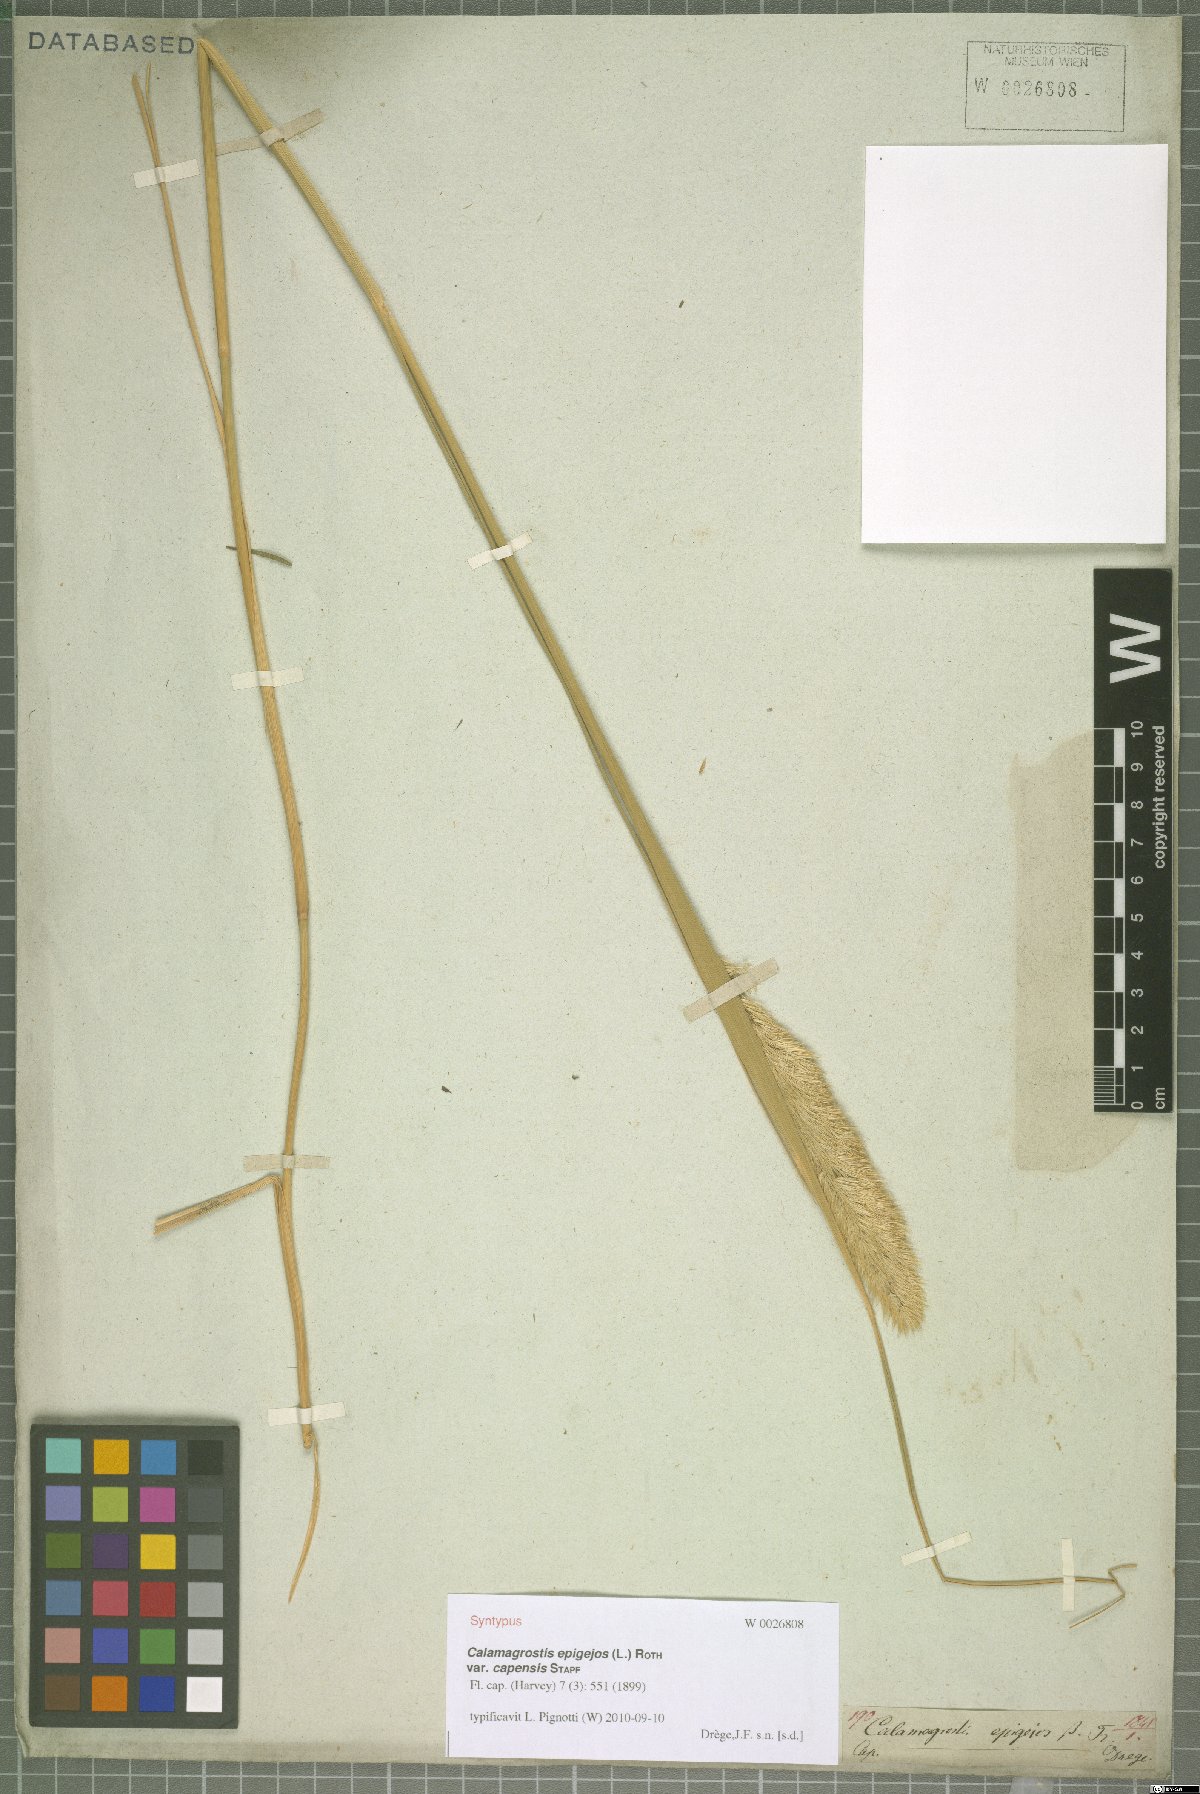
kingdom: Plantae
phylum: Tracheophyta
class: Liliopsida
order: Poales
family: Poaceae
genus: Calamagrostis
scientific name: Calamagrostis epigejos
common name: Wood small-reed
